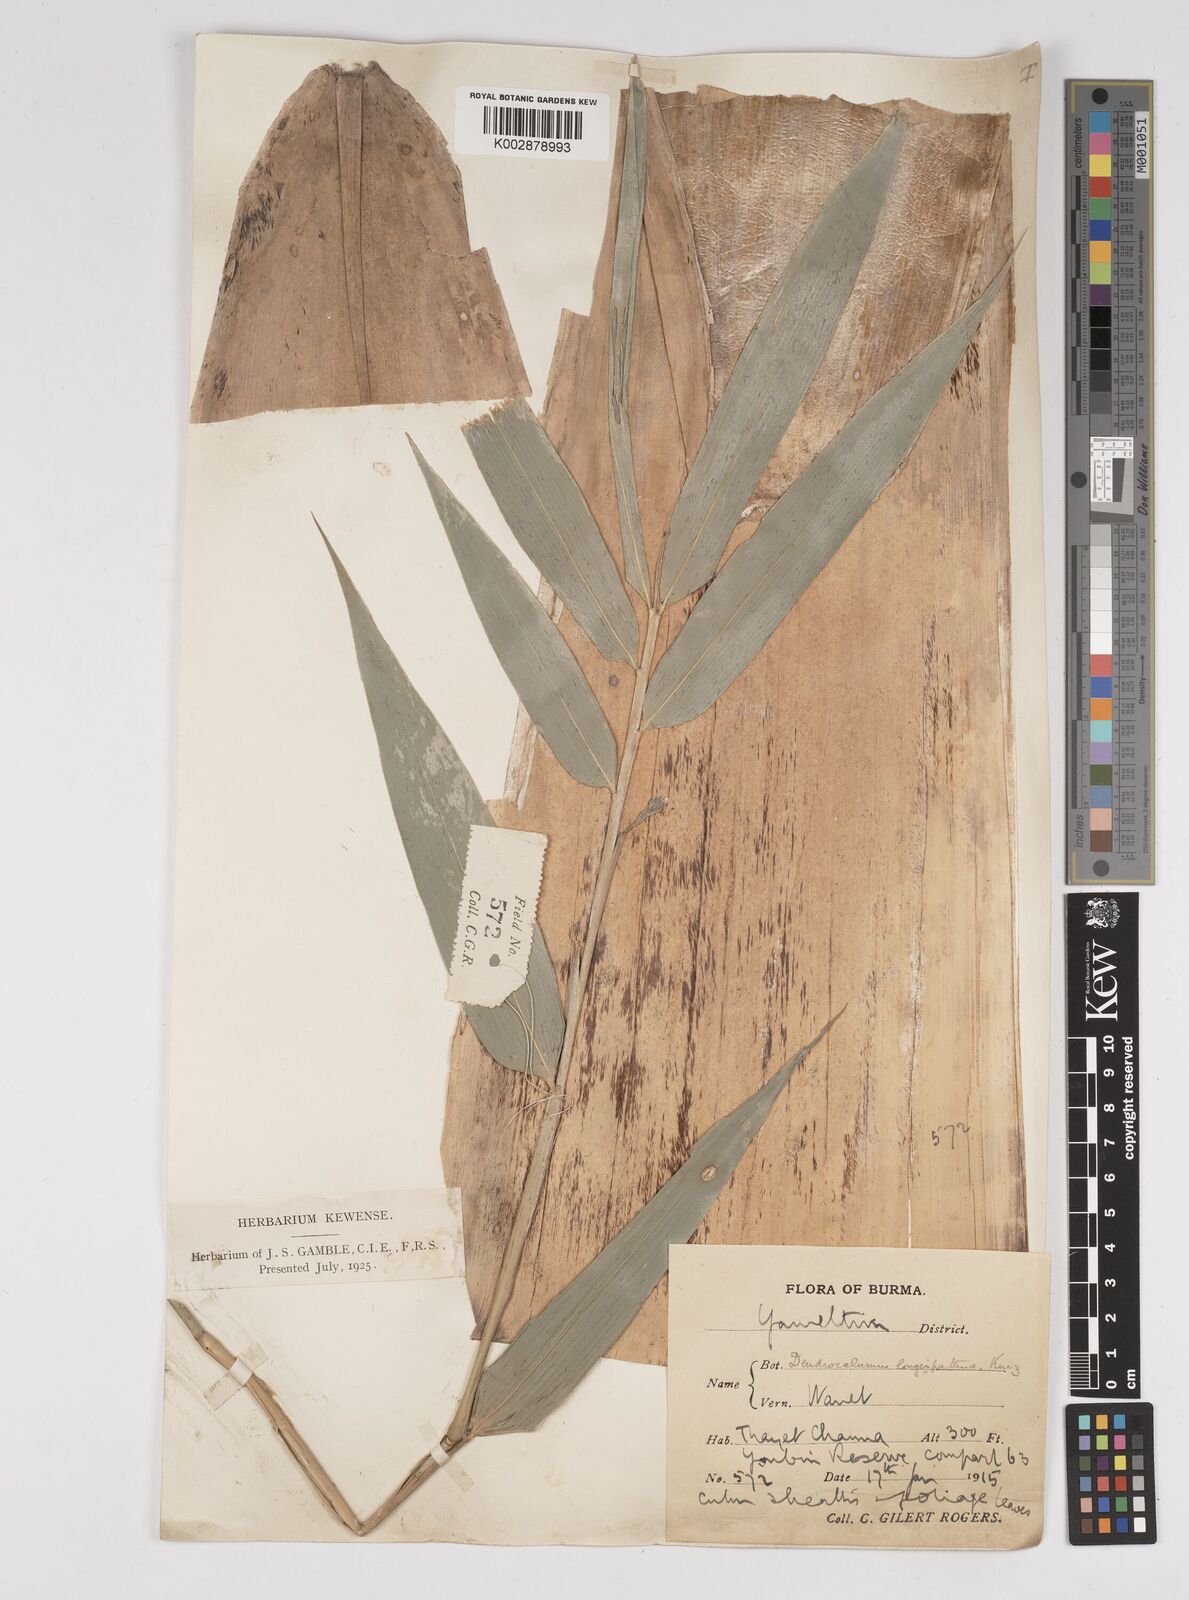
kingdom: Plantae
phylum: Tracheophyta
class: Liliopsida
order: Poales
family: Poaceae
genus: Dendrocalamus
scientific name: Dendrocalamus longispathus
